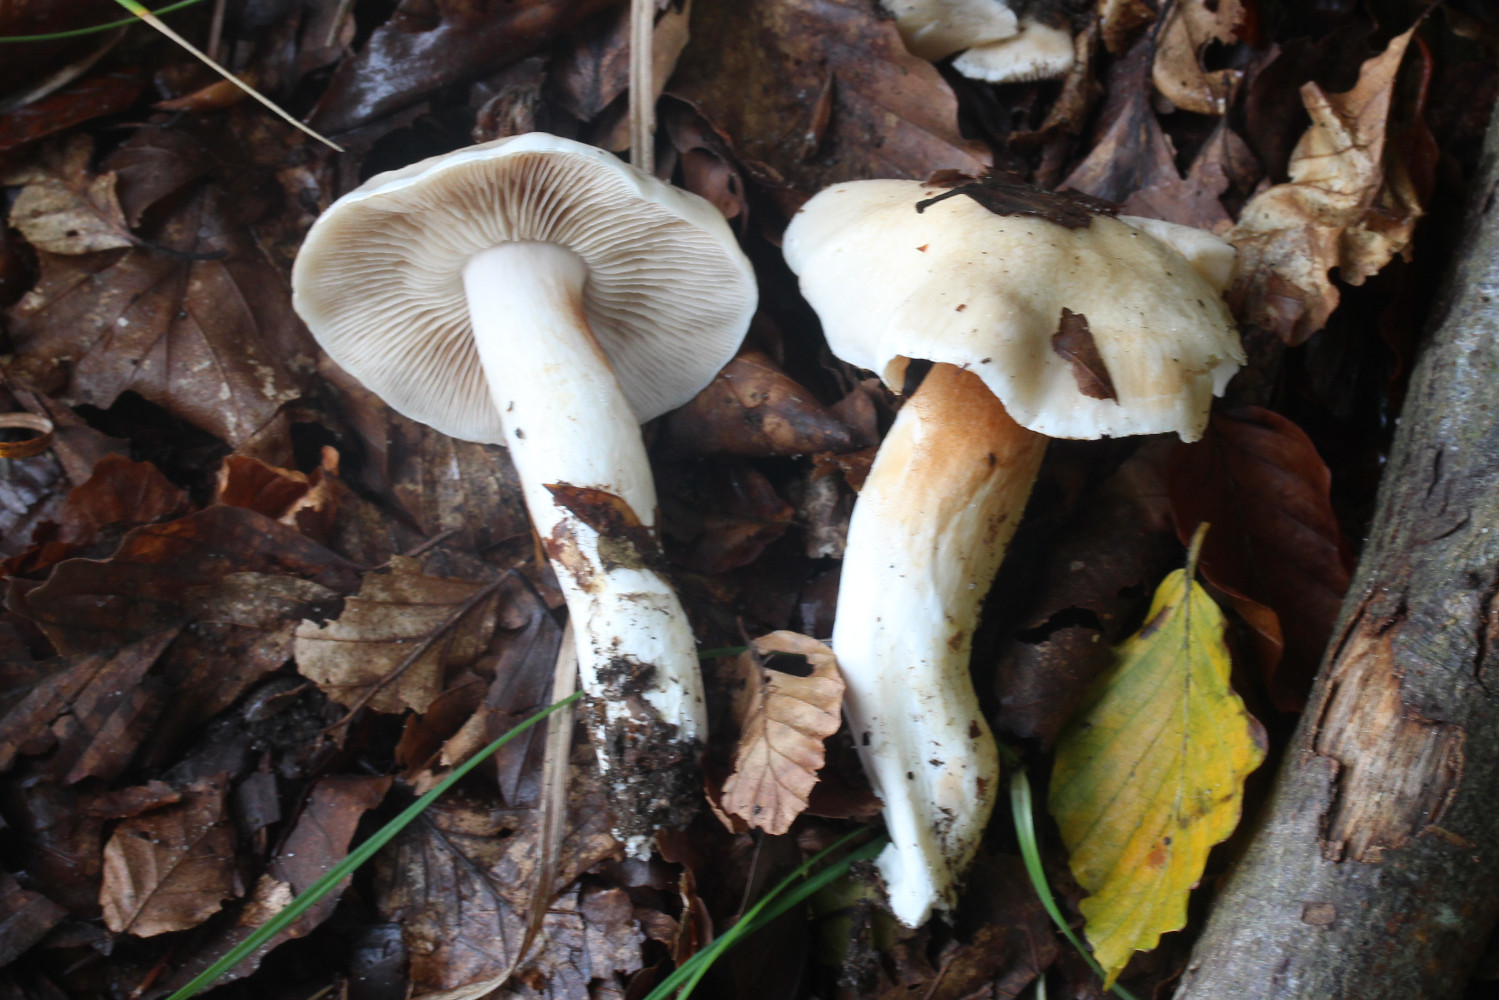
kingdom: Fungi
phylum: Basidiomycota
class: Agaricomycetes
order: Agaricales
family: Cortinariaceae
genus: Thaxterogaster
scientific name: Thaxterogaster barbatus
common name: elfenbens-slørhat
